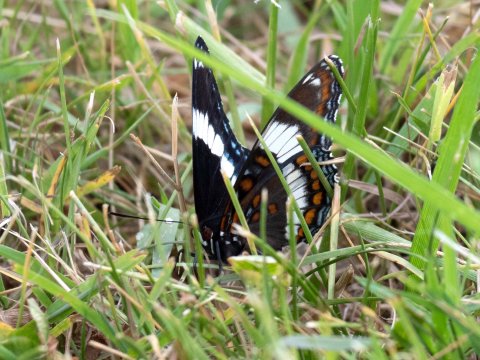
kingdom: Animalia
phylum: Arthropoda
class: Insecta
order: Lepidoptera
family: Nymphalidae
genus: Limenitis
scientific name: Limenitis arthemis
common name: Red-spotted Admiral
